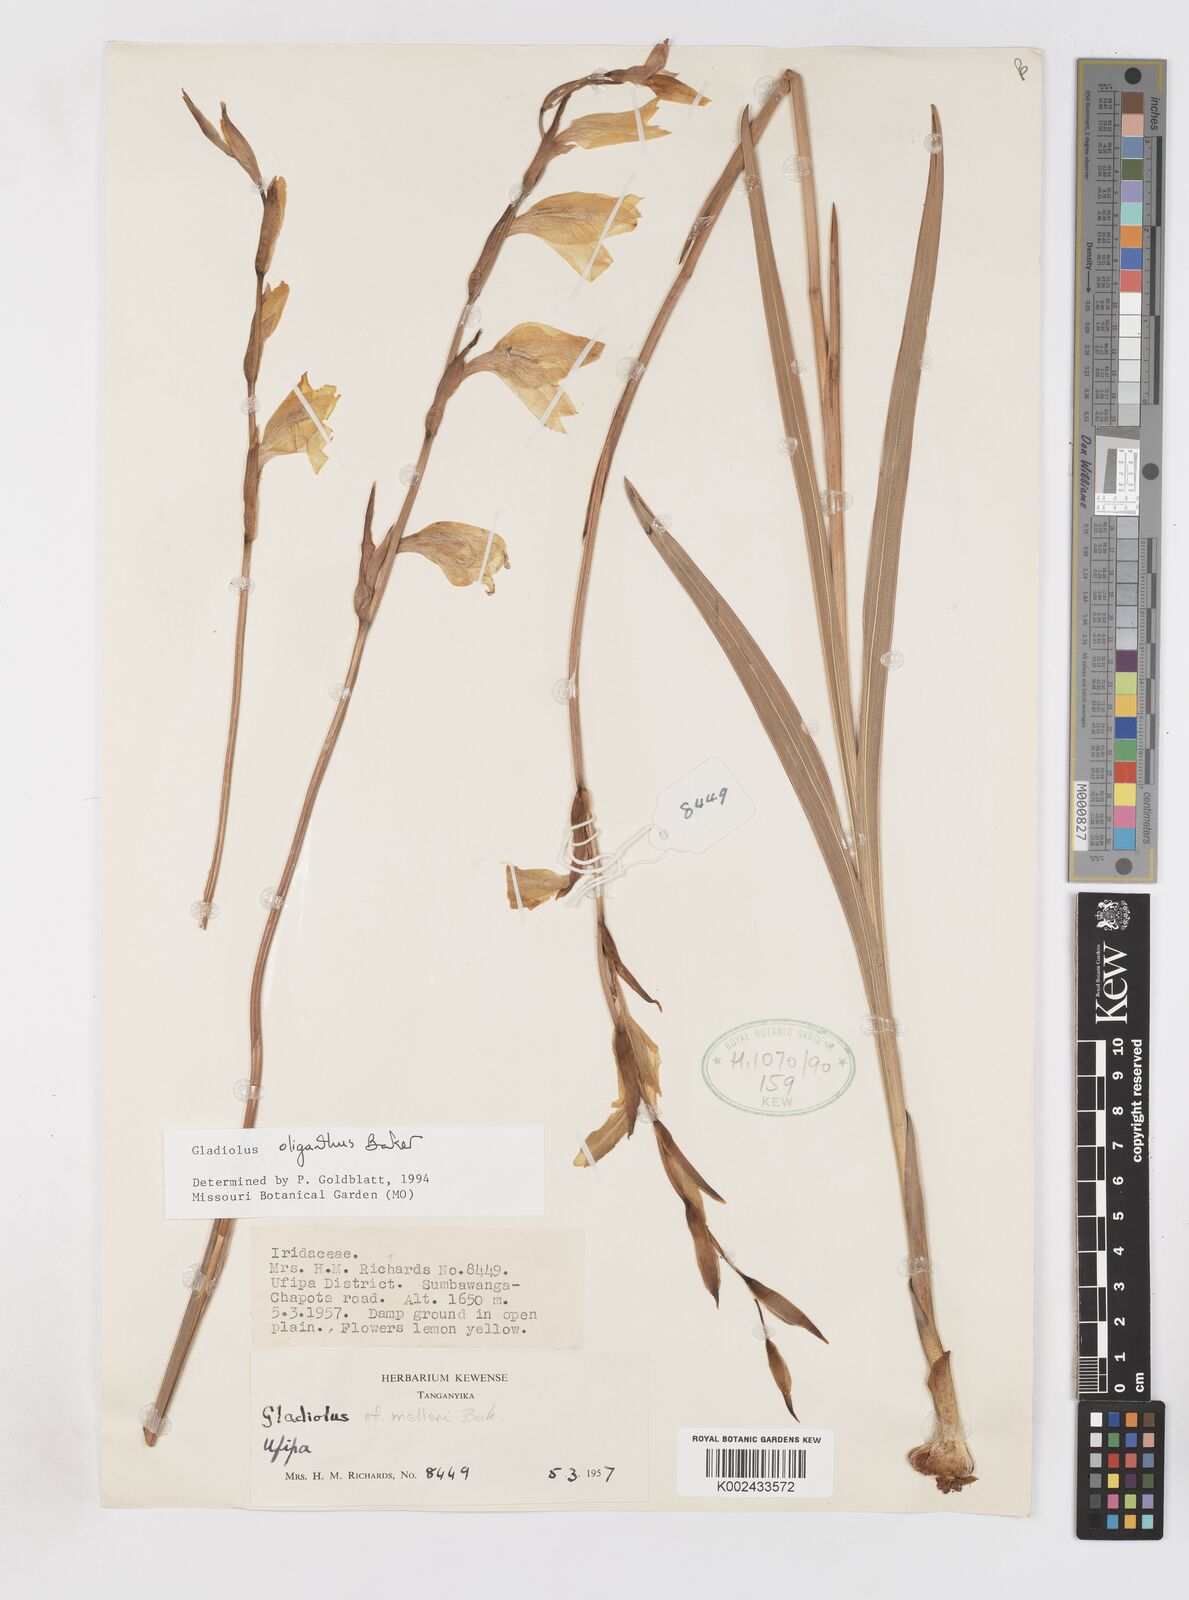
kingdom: Plantae
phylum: Tracheophyta
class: Liliopsida
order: Asparagales
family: Iridaceae
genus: Gladiolus
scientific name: Gladiolus oliganthus
